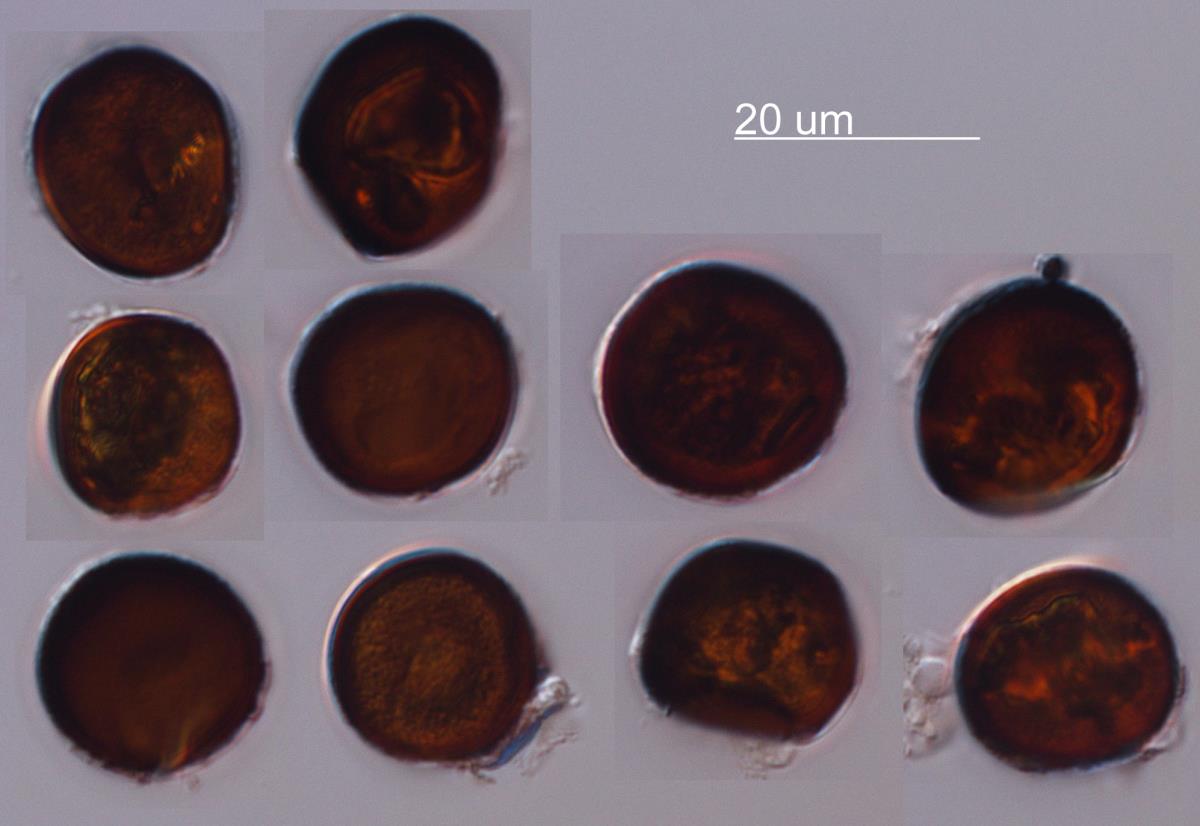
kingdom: Fungi
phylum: Basidiomycota
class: Ustilaginomycetes
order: Ustilaginales
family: Anthracoideaceae
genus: Cintractia
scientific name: Cintractia oreoboli
